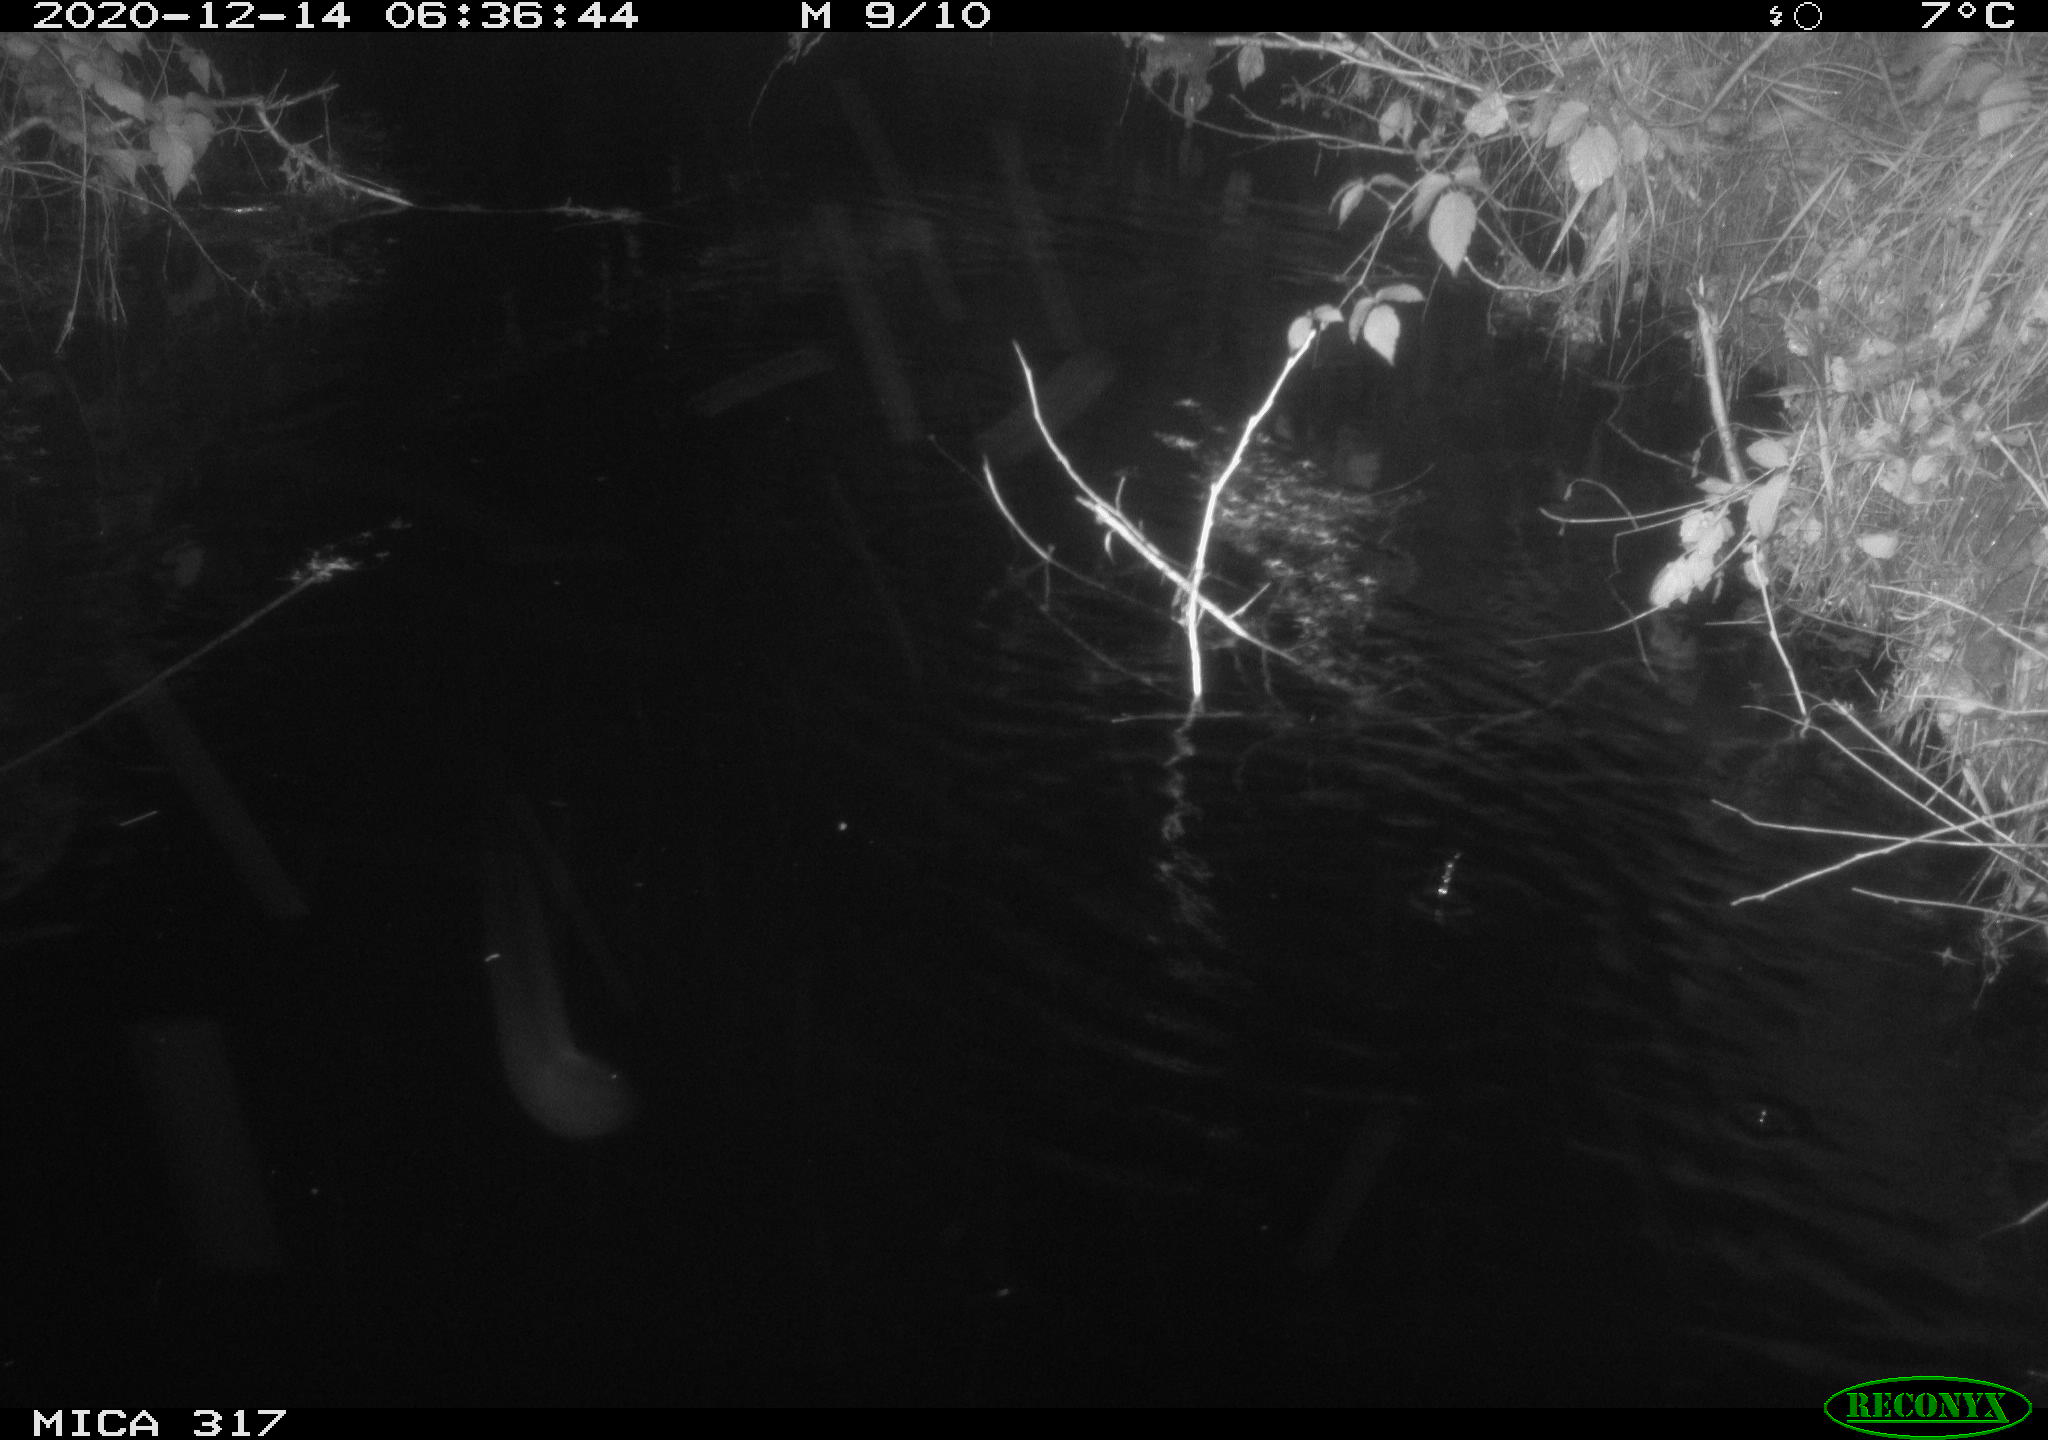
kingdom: Animalia
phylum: Chordata
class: Mammalia
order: Rodentia
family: Muridae
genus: Rattus
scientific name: Rattus norvegicus
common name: Brown rat
